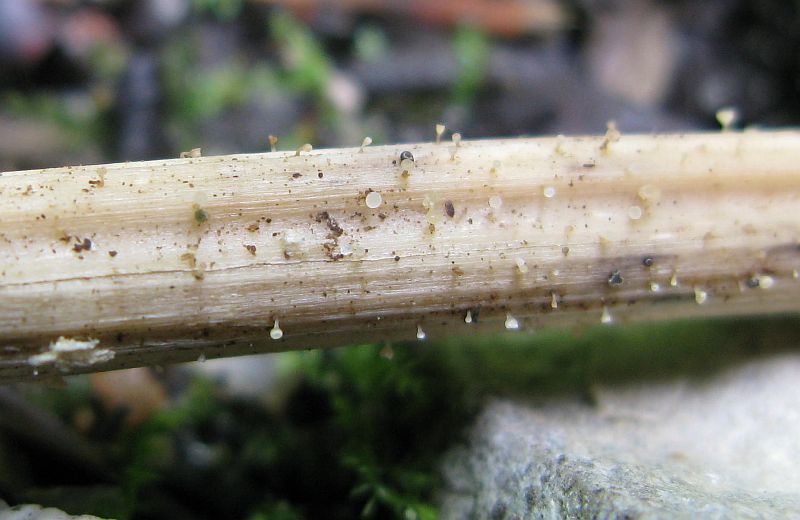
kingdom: Fungi
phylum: Ascomycota
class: Leotiomycetes
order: Helotiales
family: Helotiaceae
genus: Cyathicula
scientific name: Cyathicula cyathoidea
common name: pokal-stilkskive
